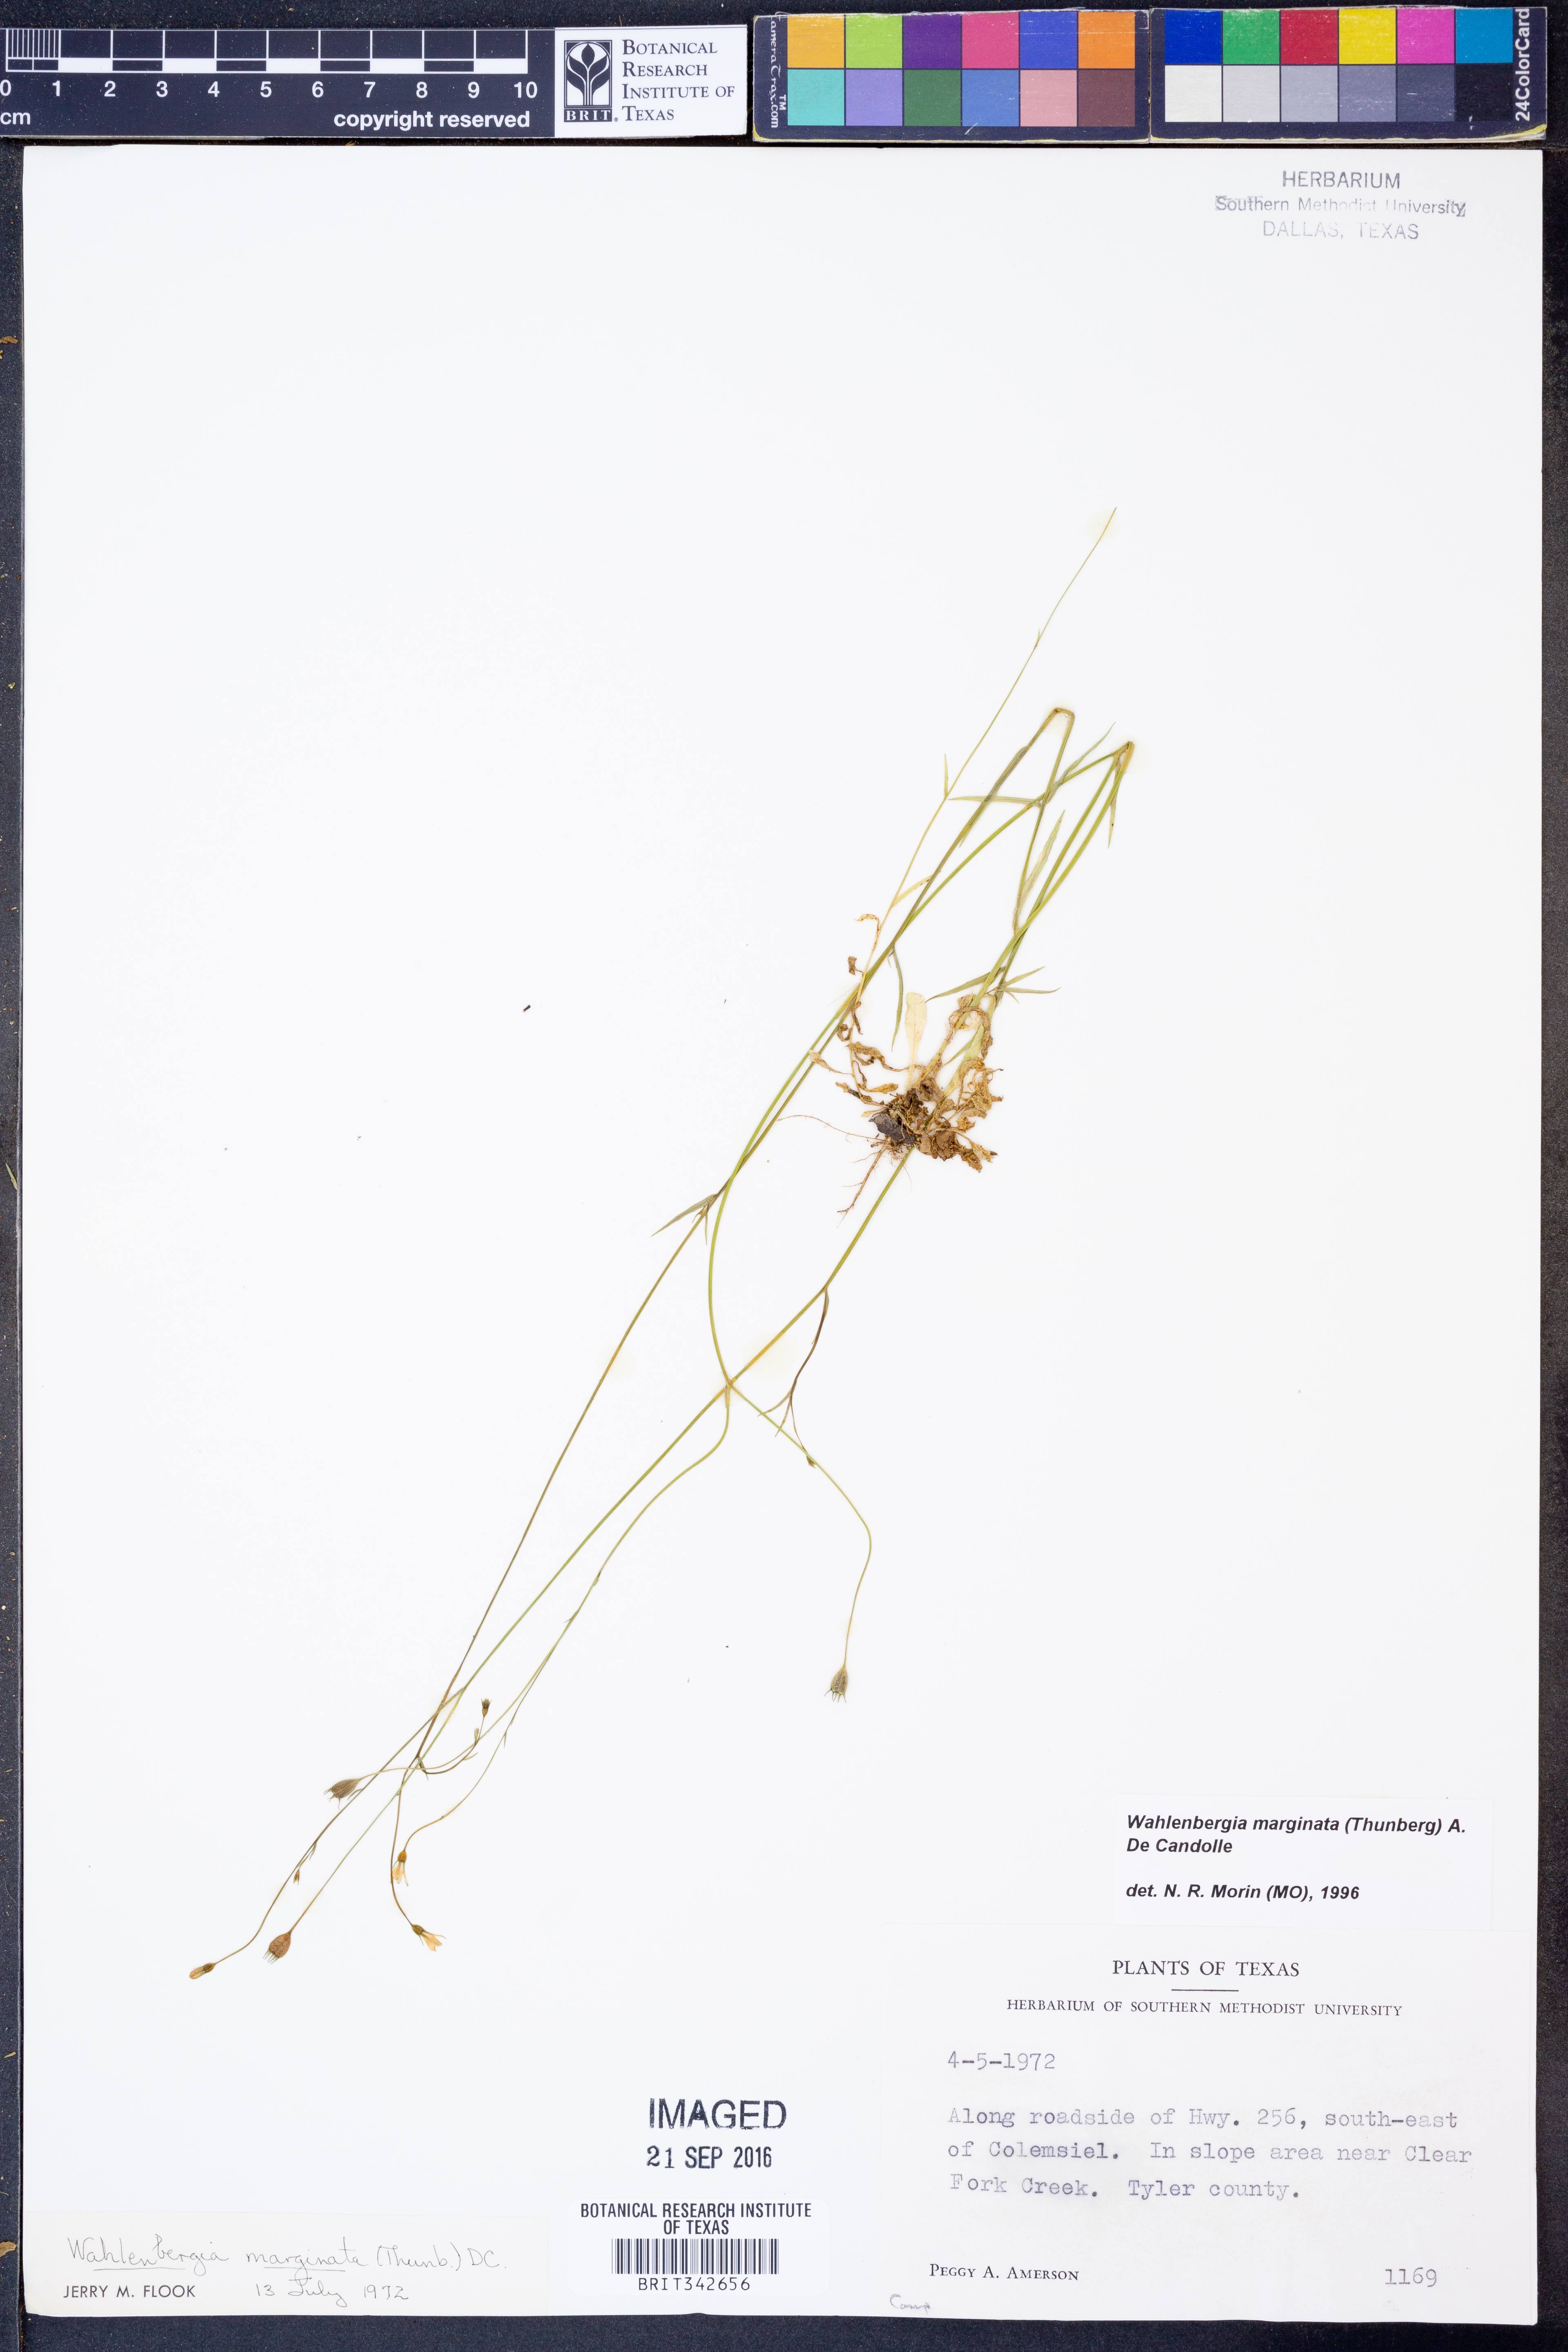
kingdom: Plantae
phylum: Tracheophyta
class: Magnoliopsida
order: Asterales
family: Campanulaceae
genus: Wahlenbergia
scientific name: Wahlenbergia marginata
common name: Southern rockbell
